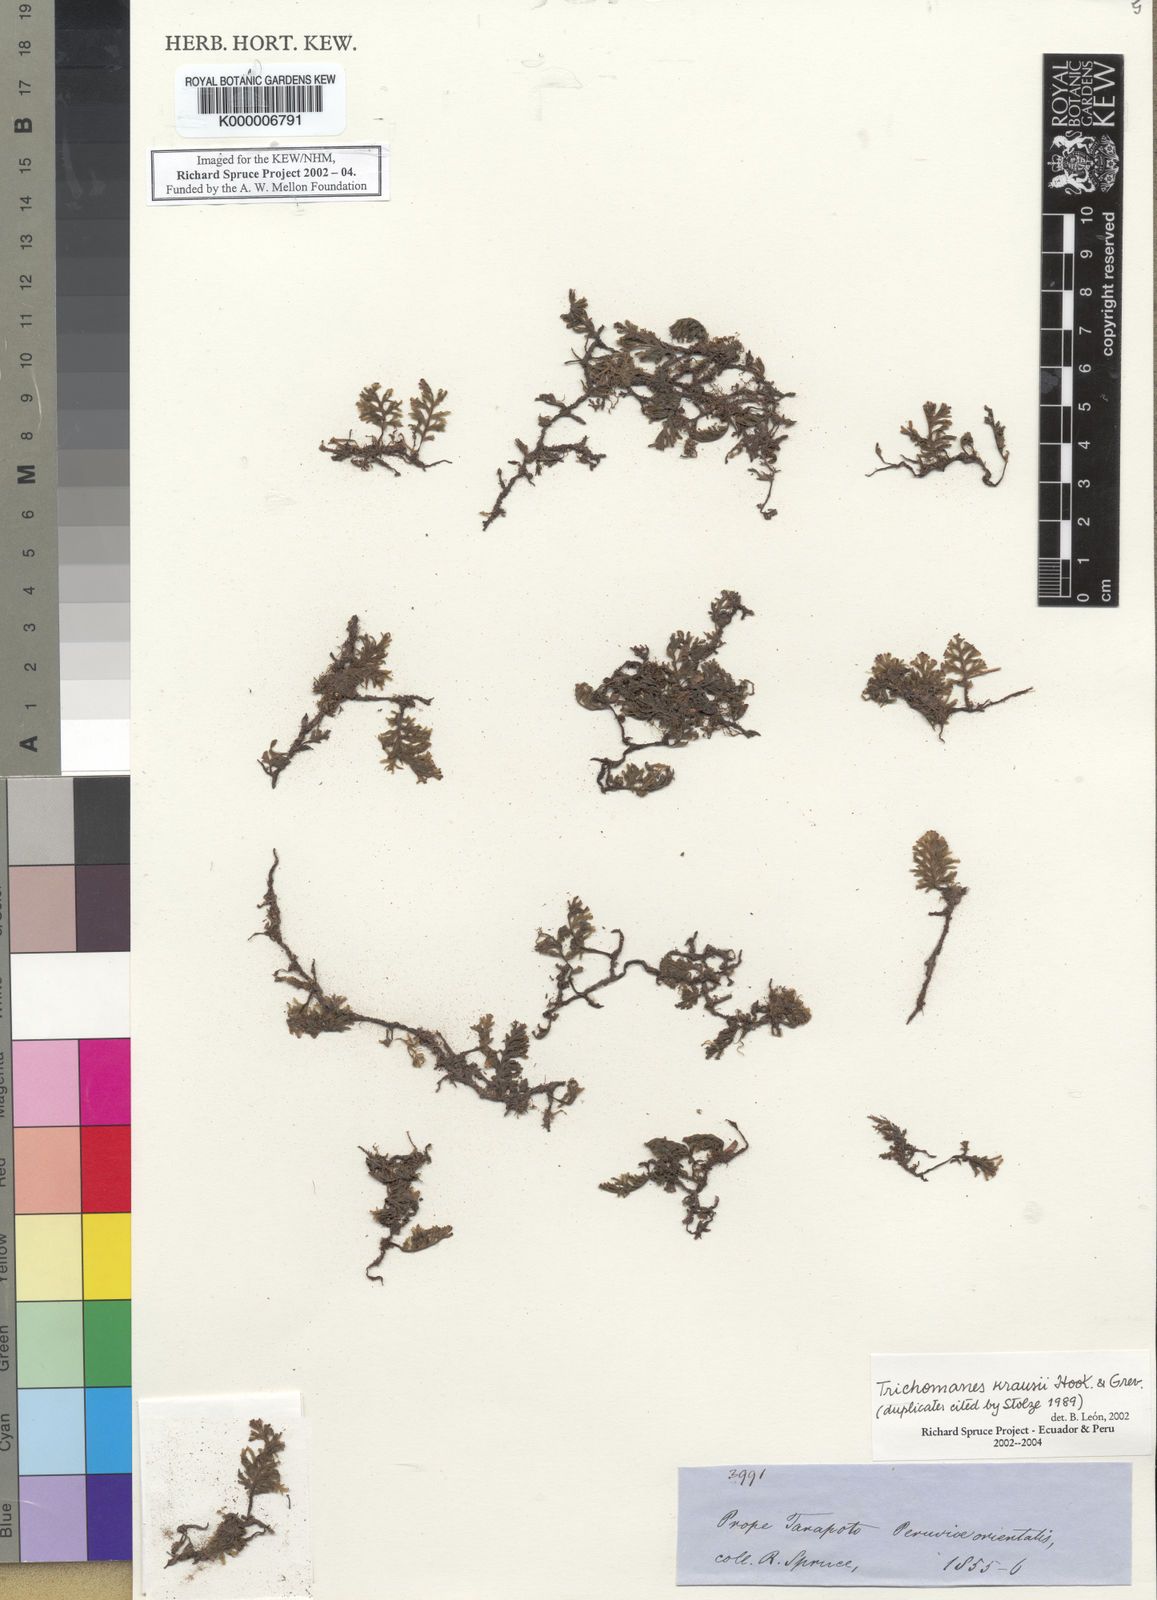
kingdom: Plantae
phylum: Tracheophyta
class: Polypodiopsida
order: Hymenophyllales
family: Hymenophyllaceae
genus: Didymoglossum
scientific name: Didymoglossum kraussii
